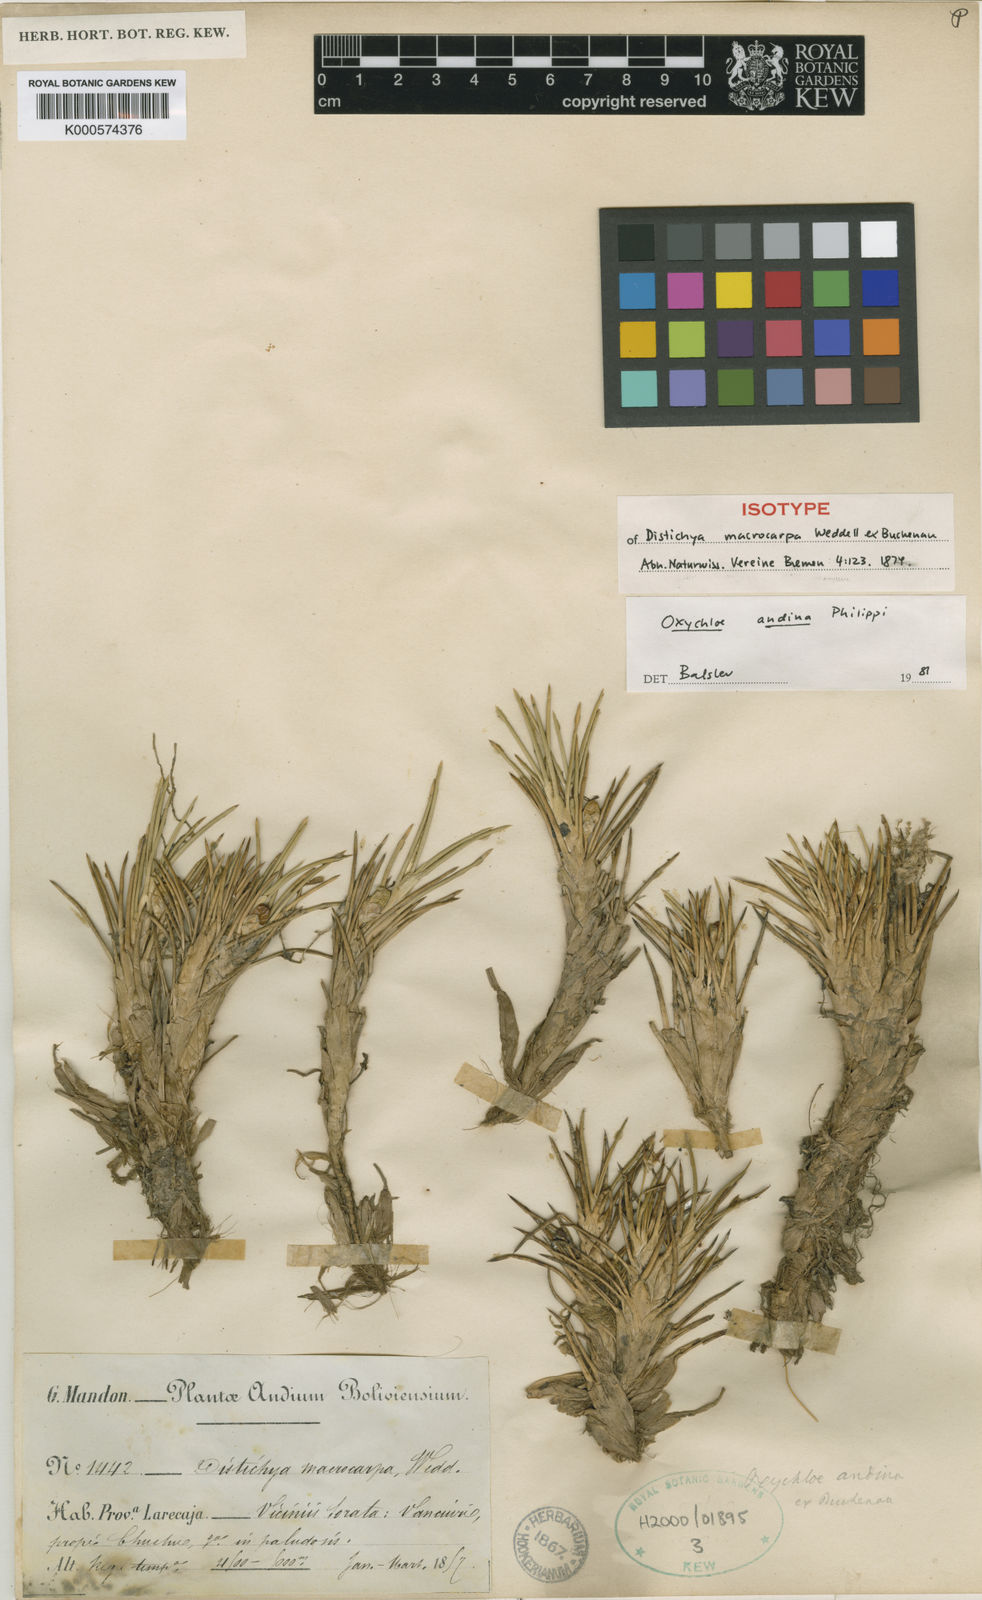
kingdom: Plantae
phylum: Tracheophyta
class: Liliopsida
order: Poales
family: Juncaceae
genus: Oxychloe
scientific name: Oxychloe andina
